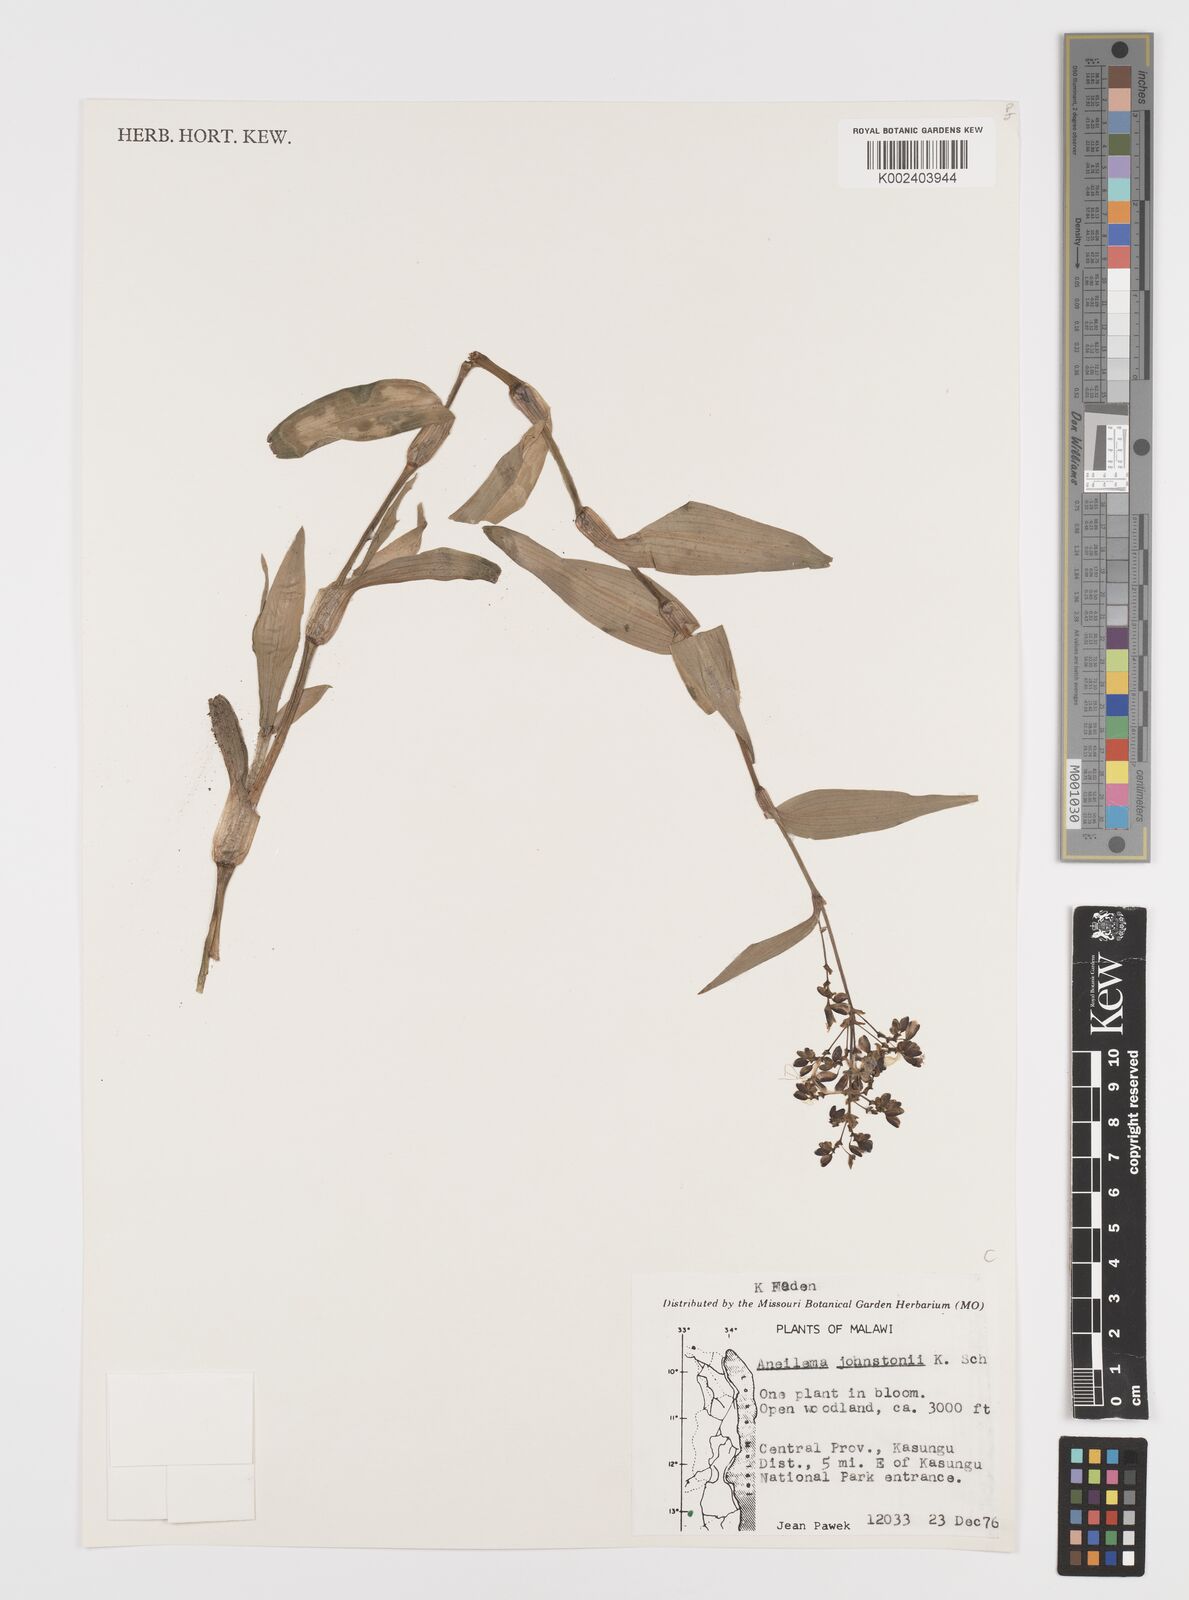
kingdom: Plantae
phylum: Tracheophyta
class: Liliopsida
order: Commelinales
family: Commelinaceae
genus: Aneilema
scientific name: Aneilema johnstonii
